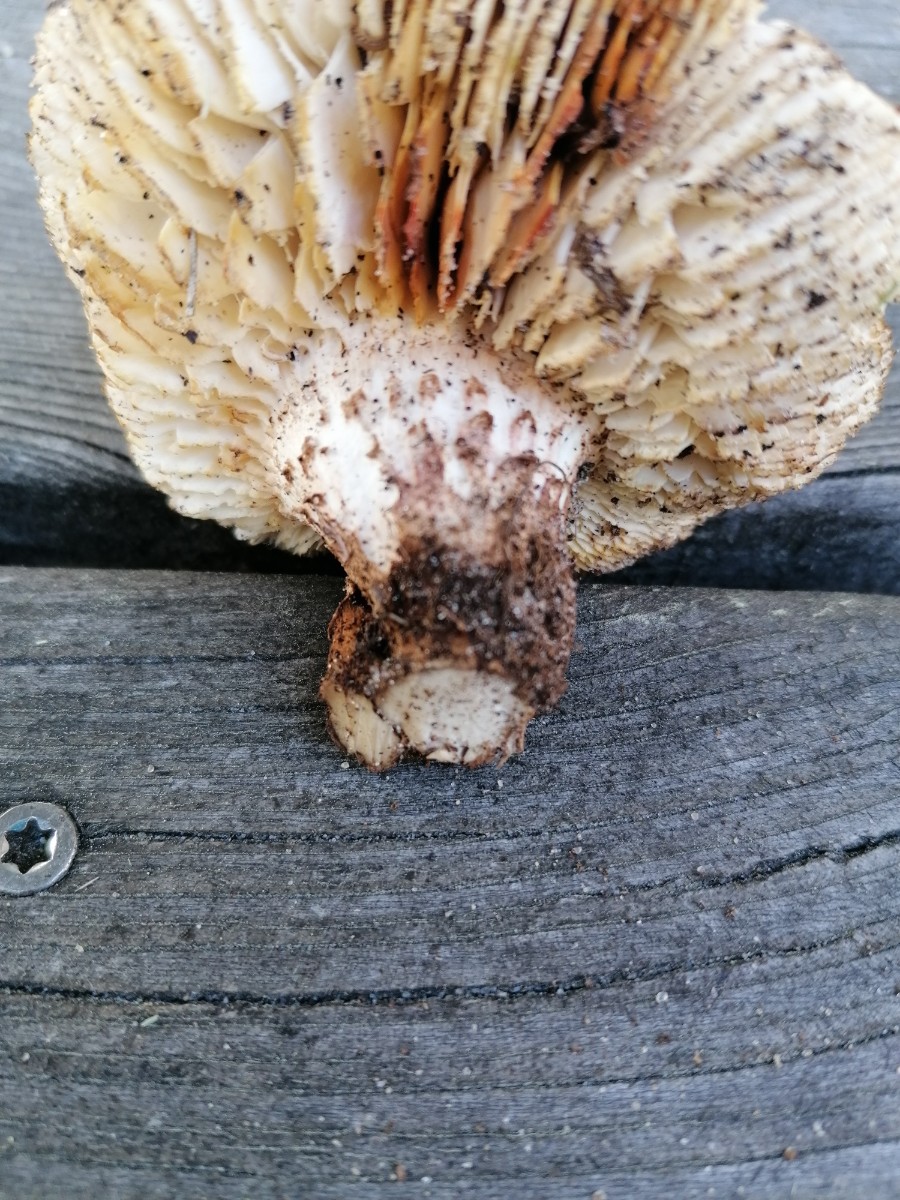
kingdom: Fungi
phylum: Basidiomycota
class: Agaricomycetes
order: Gloeophyllales
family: Gloeophyllaceae
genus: Neolentinus
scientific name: Neolentinus lepideus
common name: skællet sejhat
